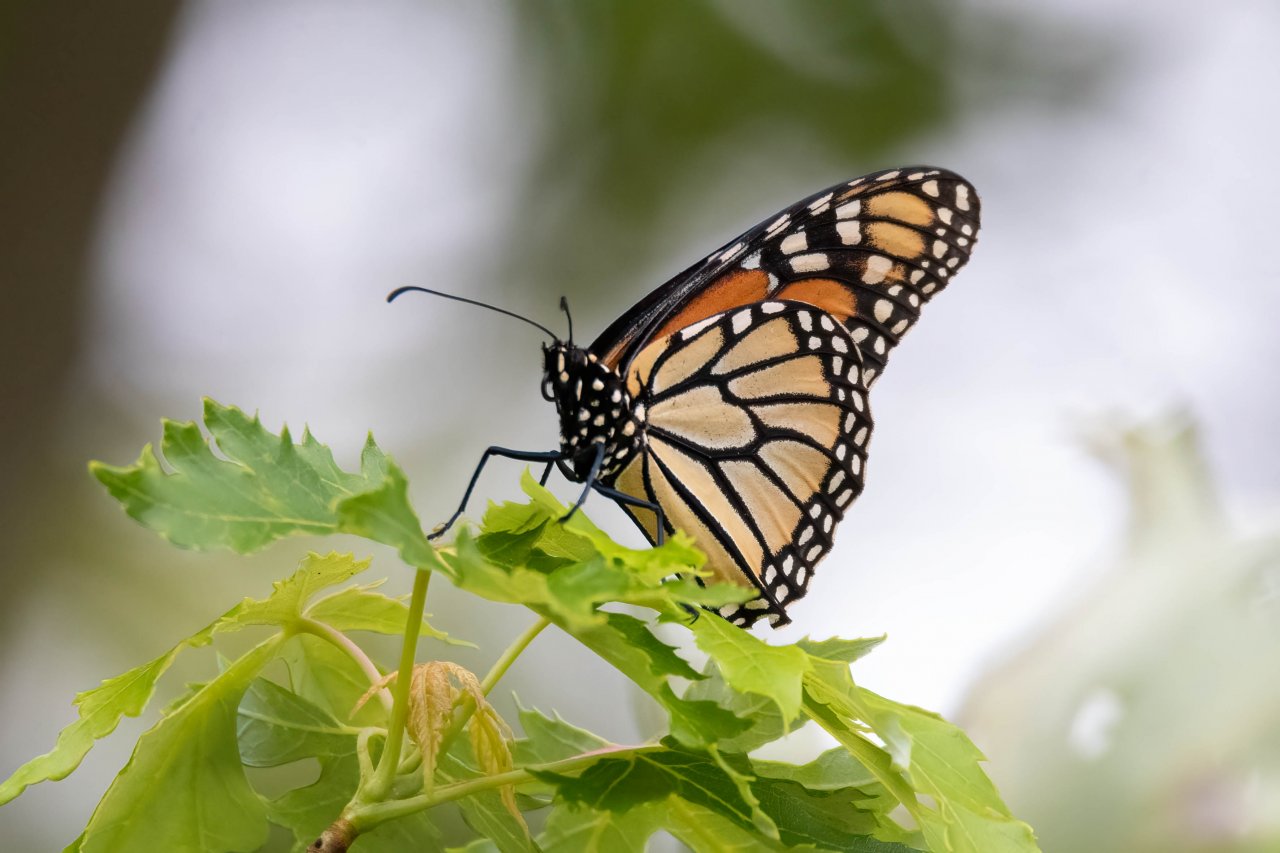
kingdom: Animalia
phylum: Arthropoda
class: Insecta
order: Lepidoptera
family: Nymphalidae
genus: Danaus
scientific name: Danaus plexippus
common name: Monarch
